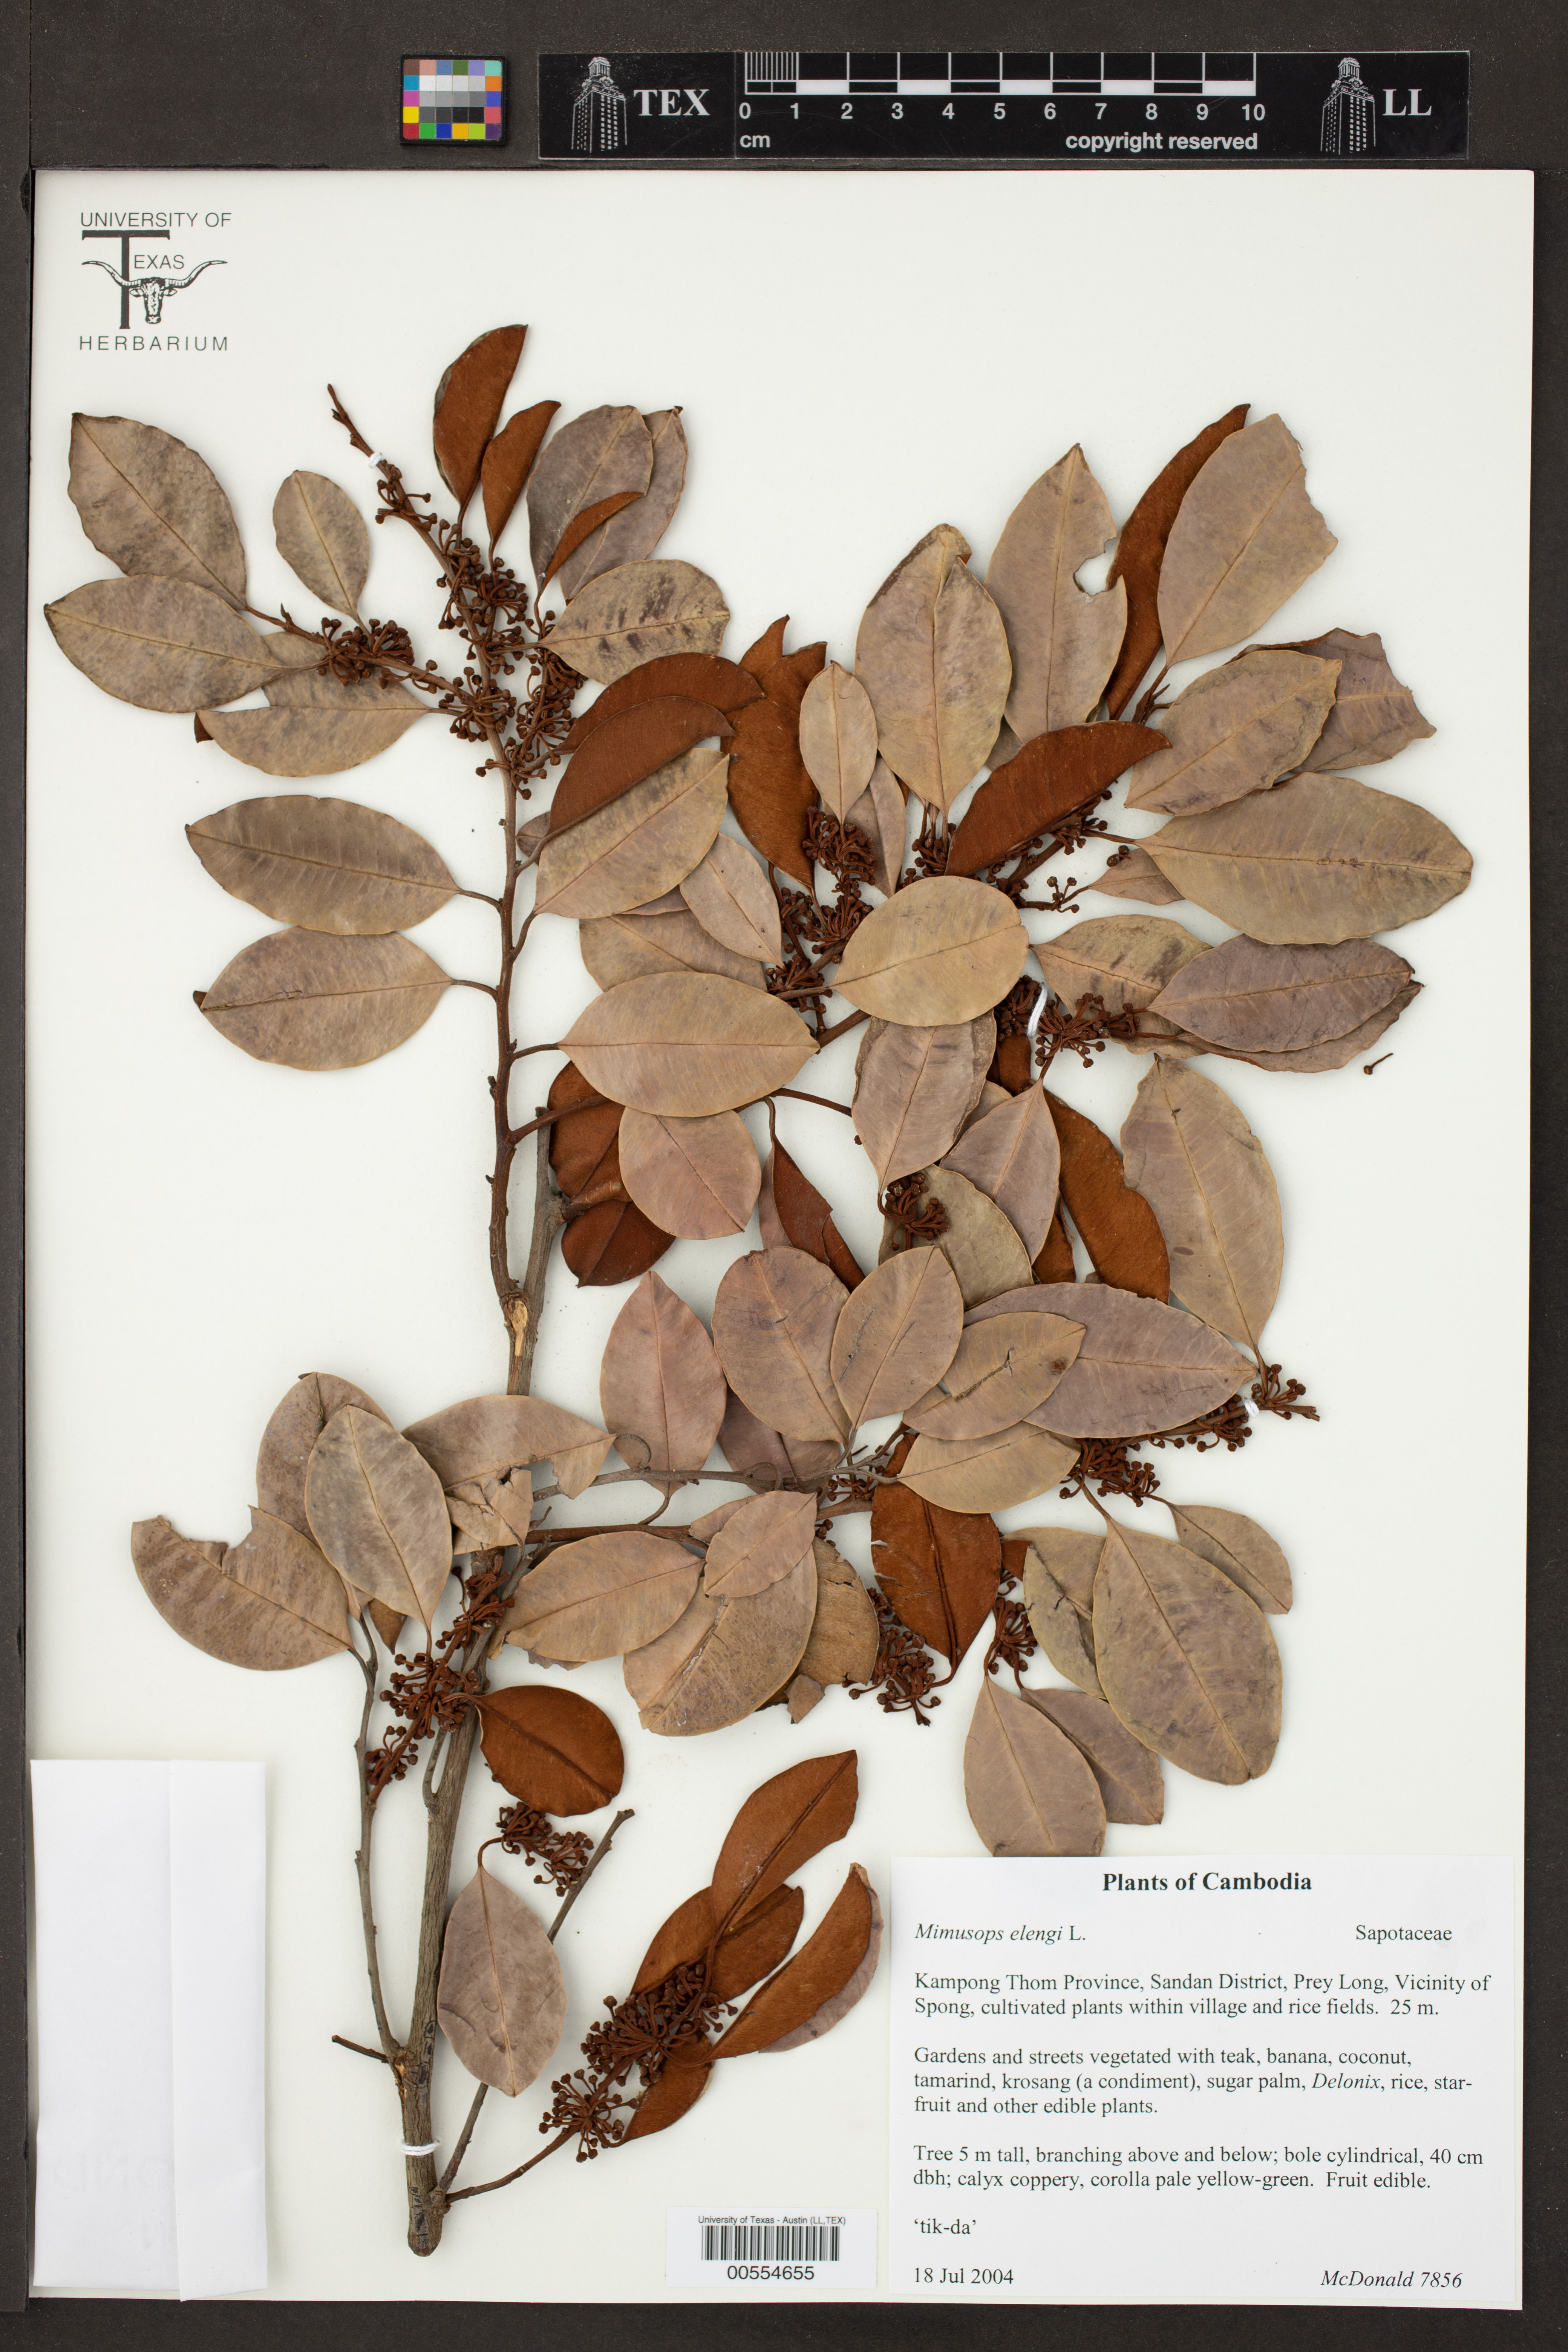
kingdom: Plantae
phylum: Tracheophyta
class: Magnoliopsida
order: Ericales
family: Sapotaceae
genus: Mimusops
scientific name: Mimusops elengi
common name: Spanish cherry
